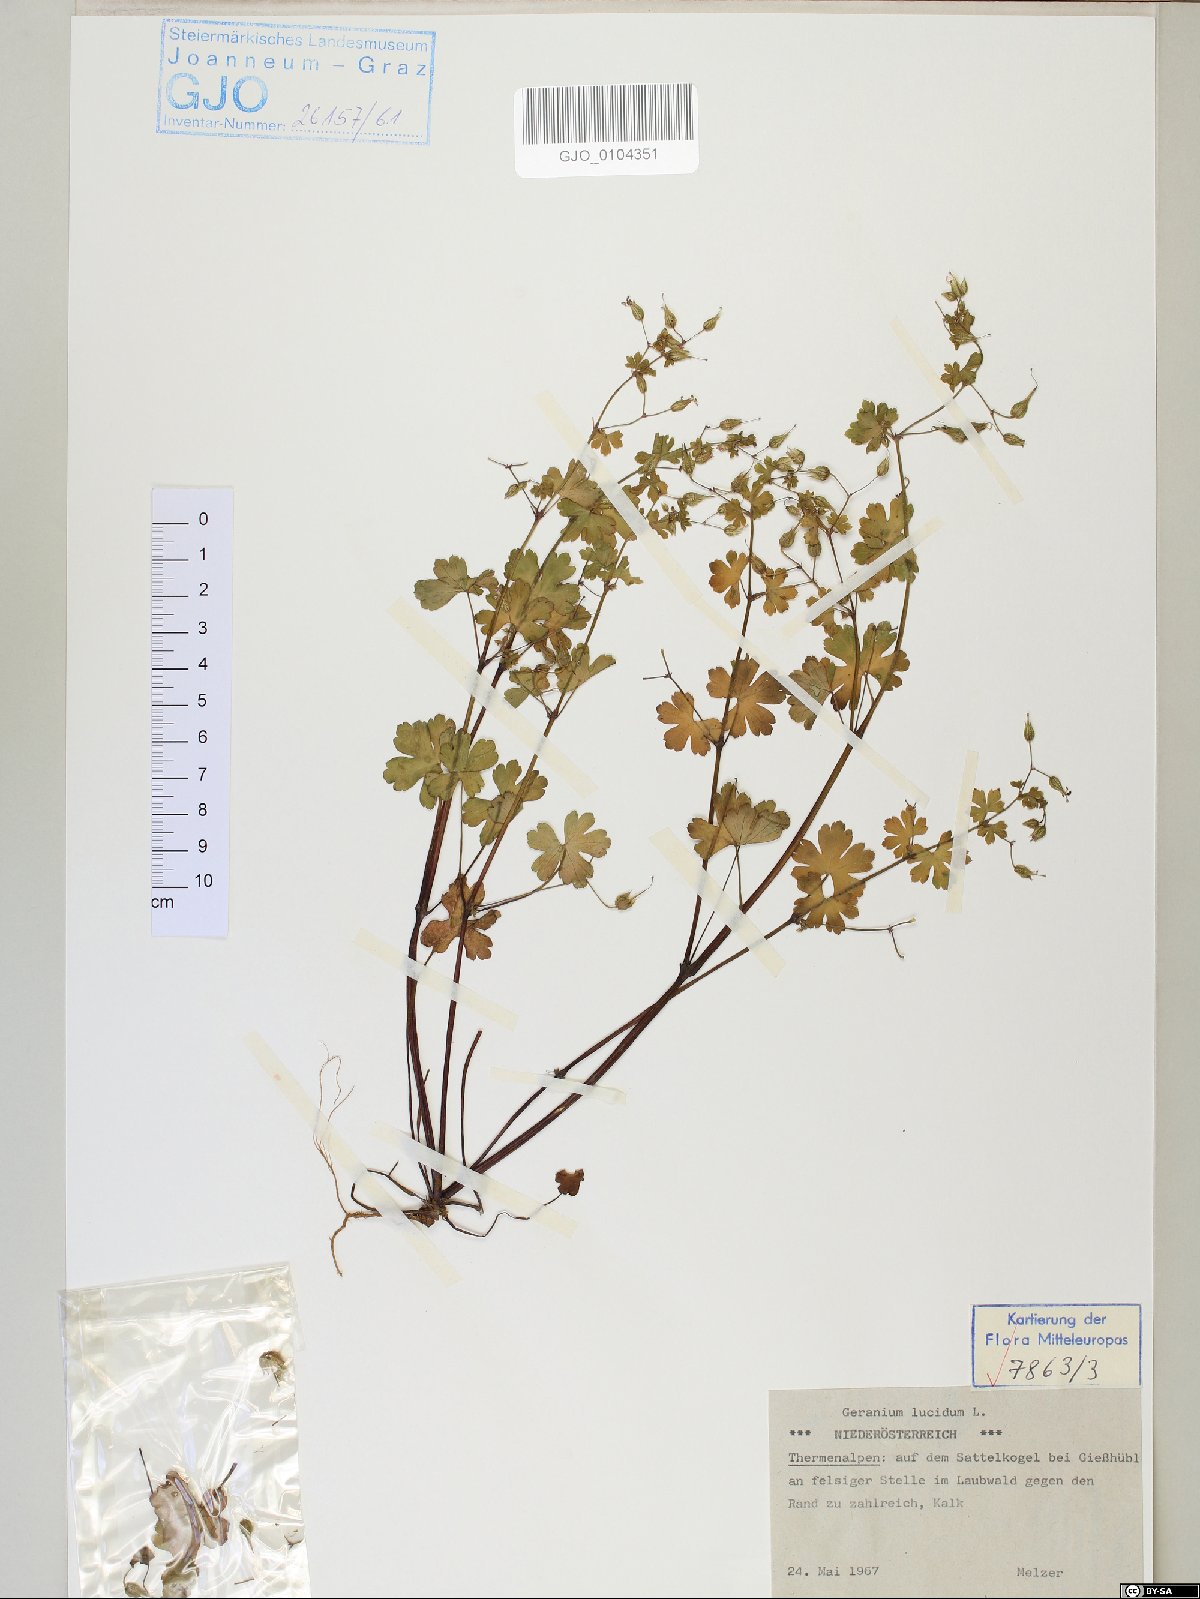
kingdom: Plantae
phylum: Tracheophyta
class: Magnoliopsida
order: Geraniales
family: Geraniaceae
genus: Geranium
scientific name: Geranium lucidum
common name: Shining crane's-bill
